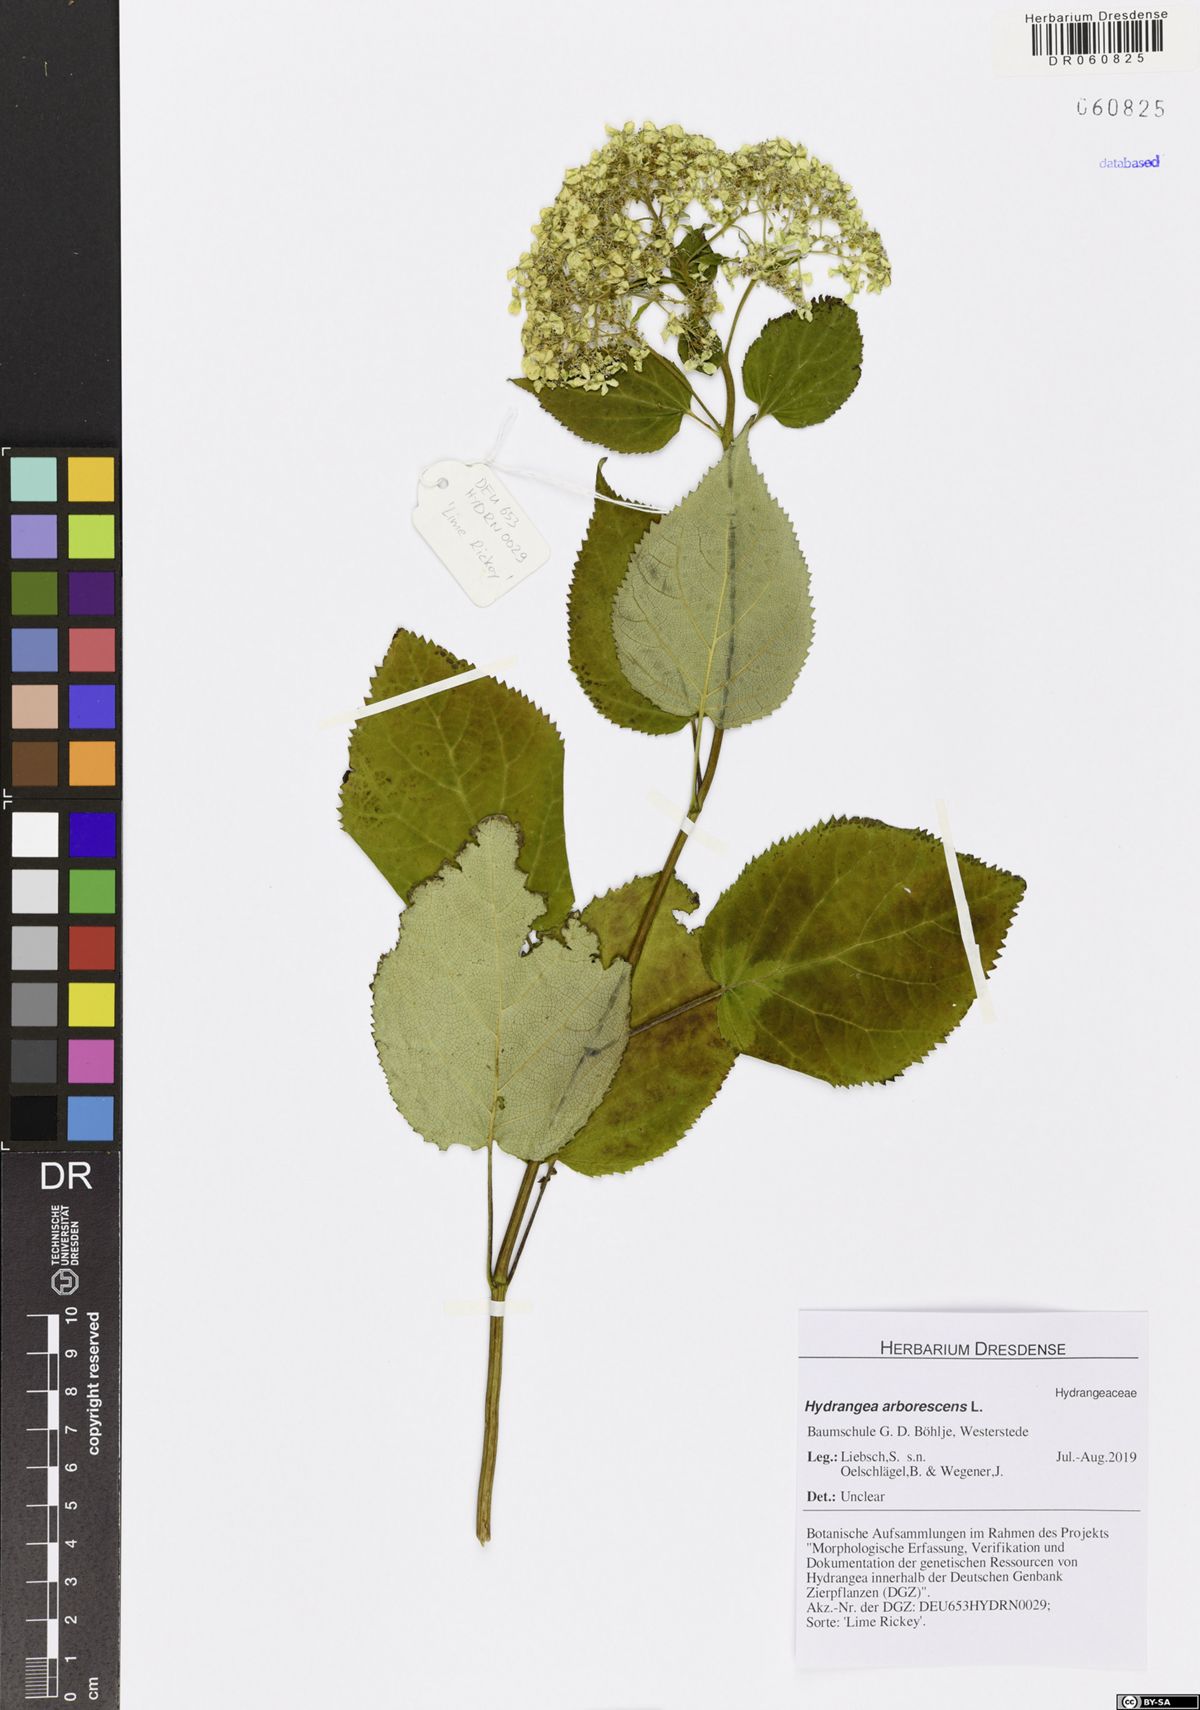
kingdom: Plantae
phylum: Tracheophyta
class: Magnoliopsida
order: Cornales
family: Hydrangeaceae
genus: Hydrangea
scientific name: Hydrangea arborescens
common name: Sevenbark
